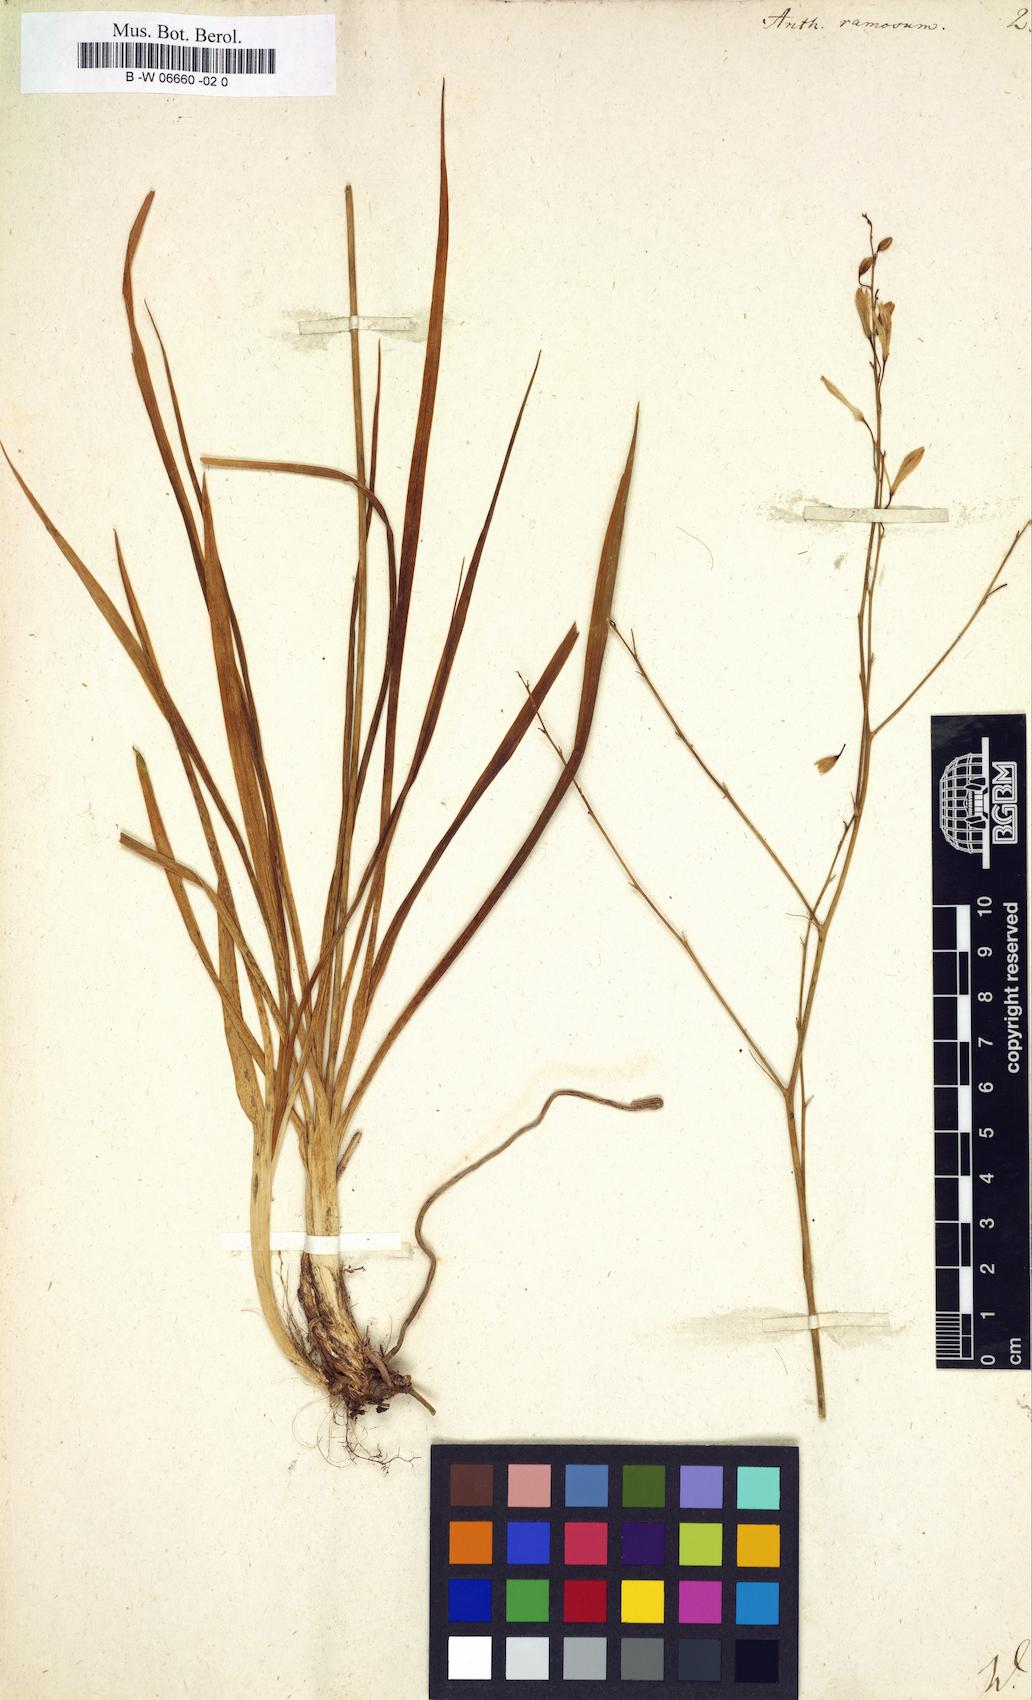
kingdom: Plantae
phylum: Tracheophyta
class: Liliopsida
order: Asparagales
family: Asparagaceae
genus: Anthericum
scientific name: Anthericum ramosum
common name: Branched st. bernard's-lily
